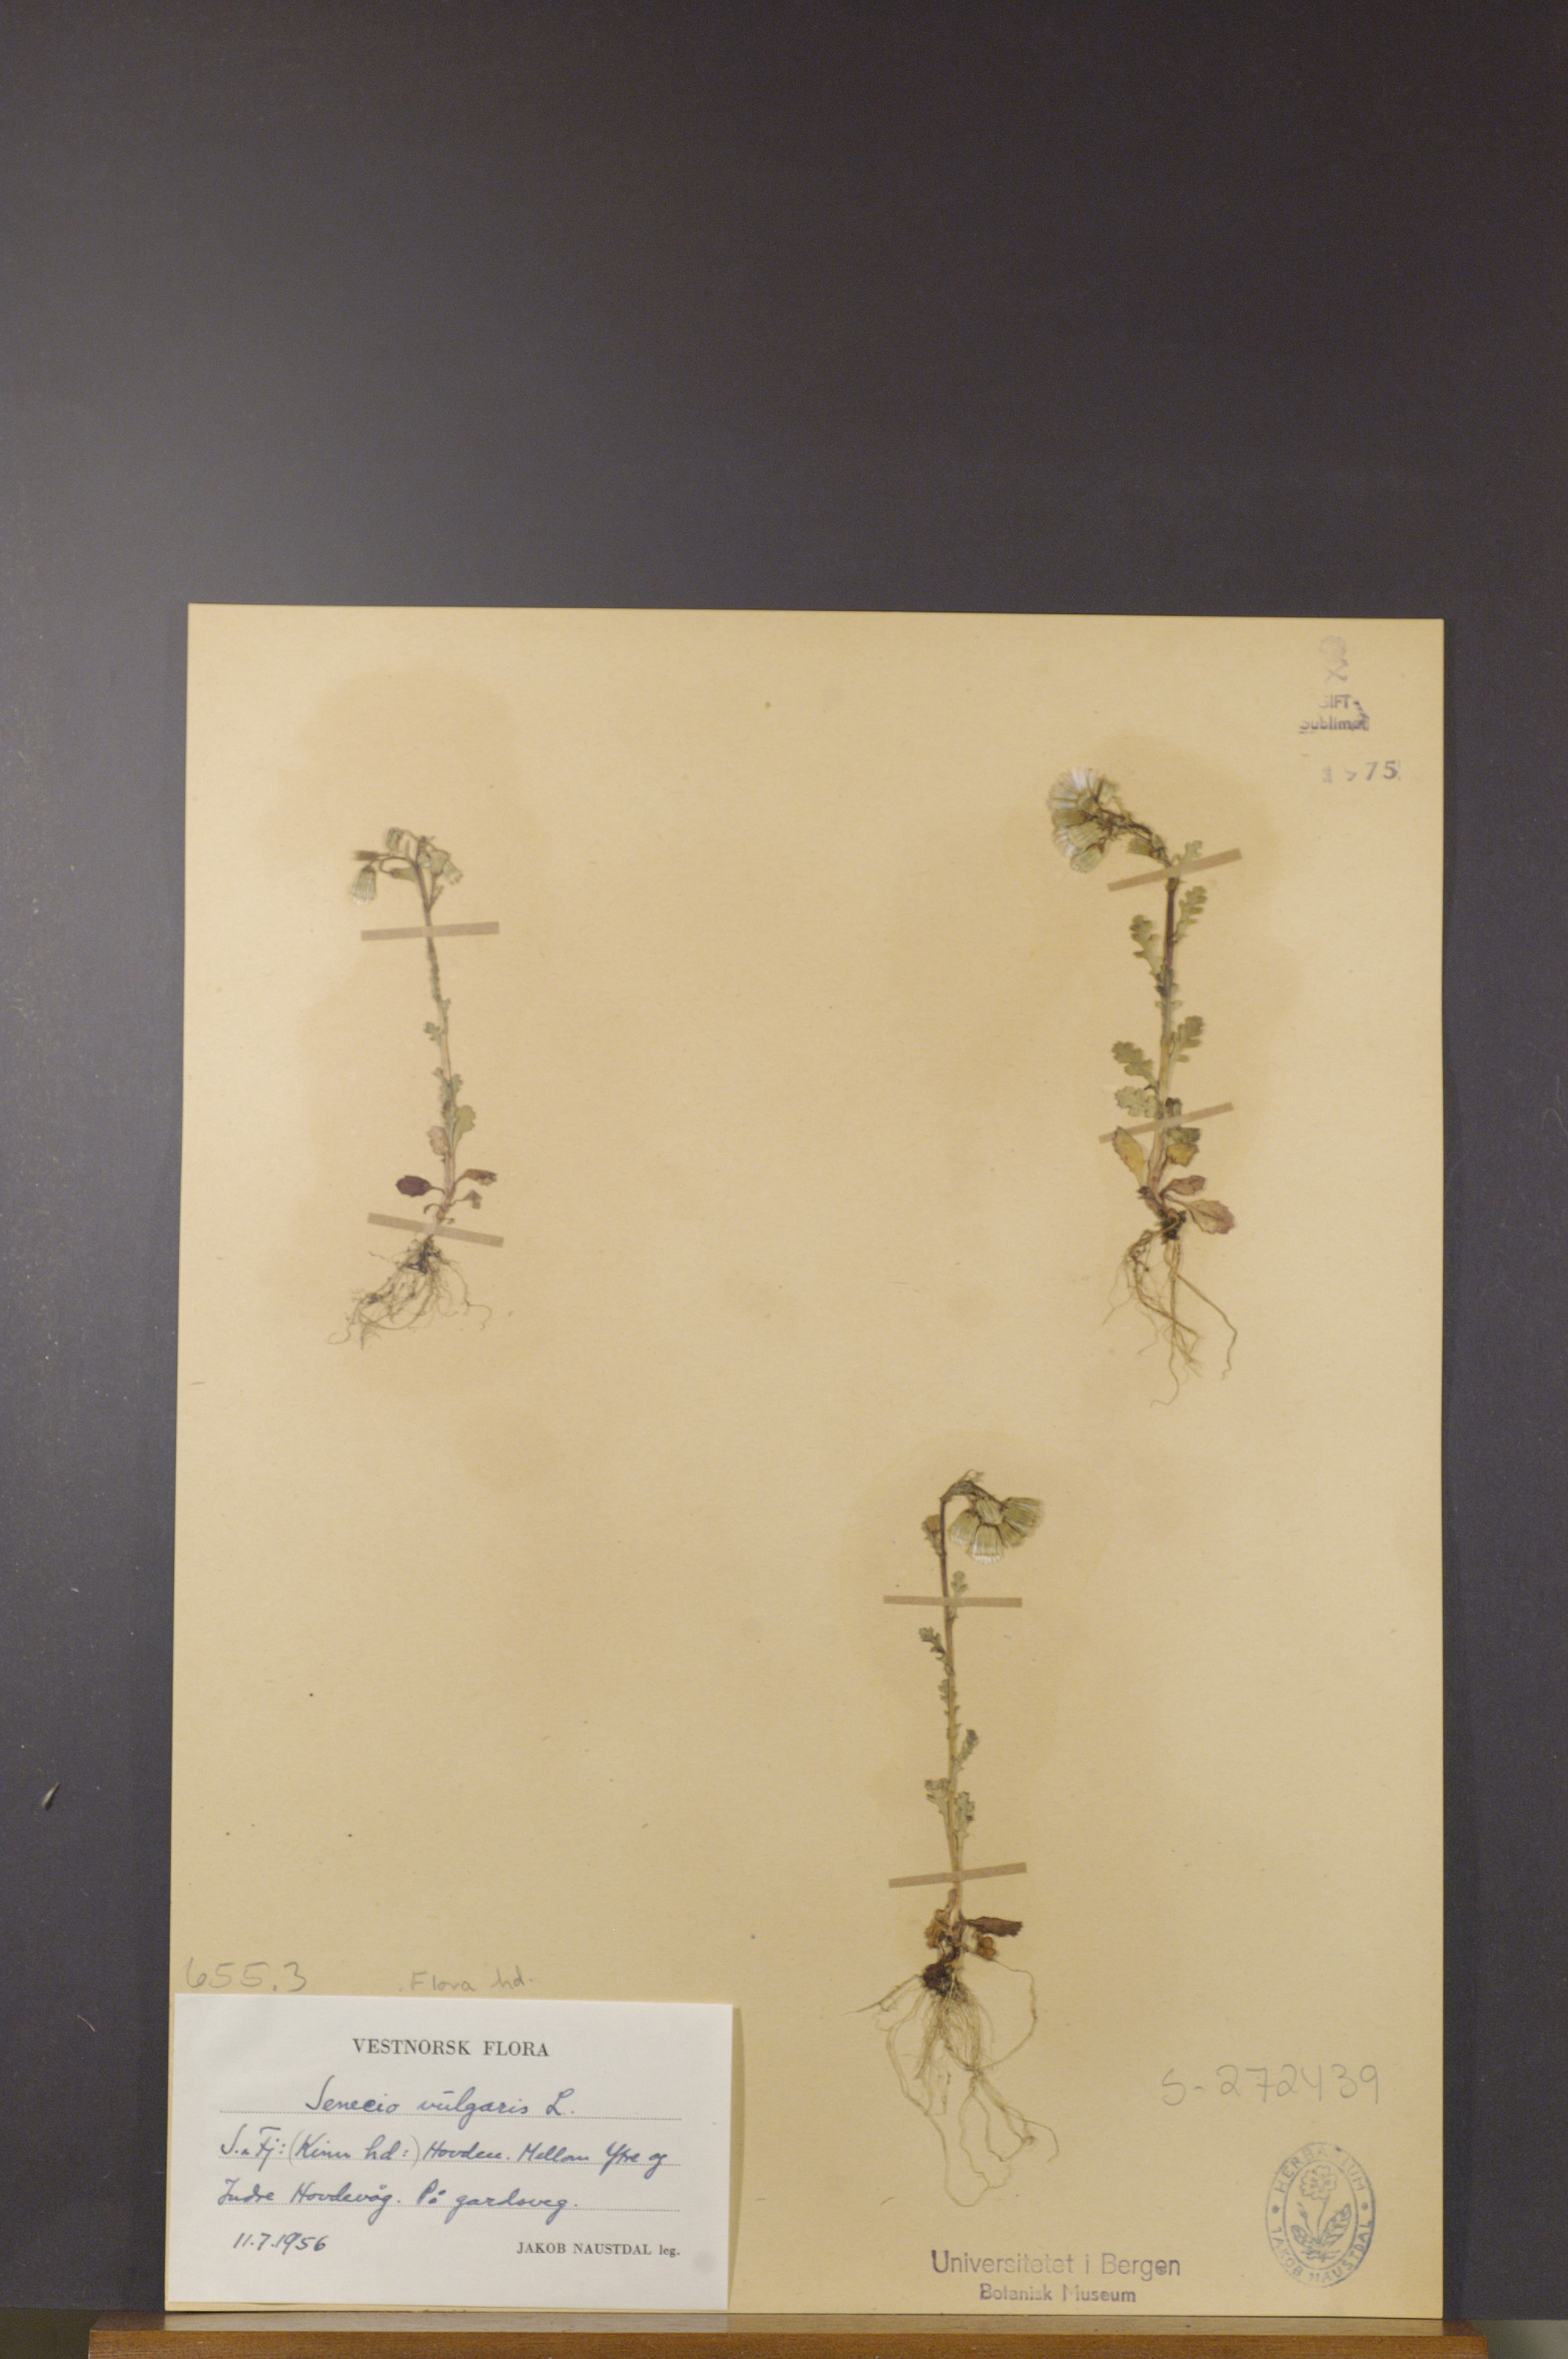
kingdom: Plantae
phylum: Tracheophyta
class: Magnoliopsida
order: Asterales
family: Asteraceae
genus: Senecio
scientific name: Senecio vulgaris
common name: Old-man-in-the-spring
